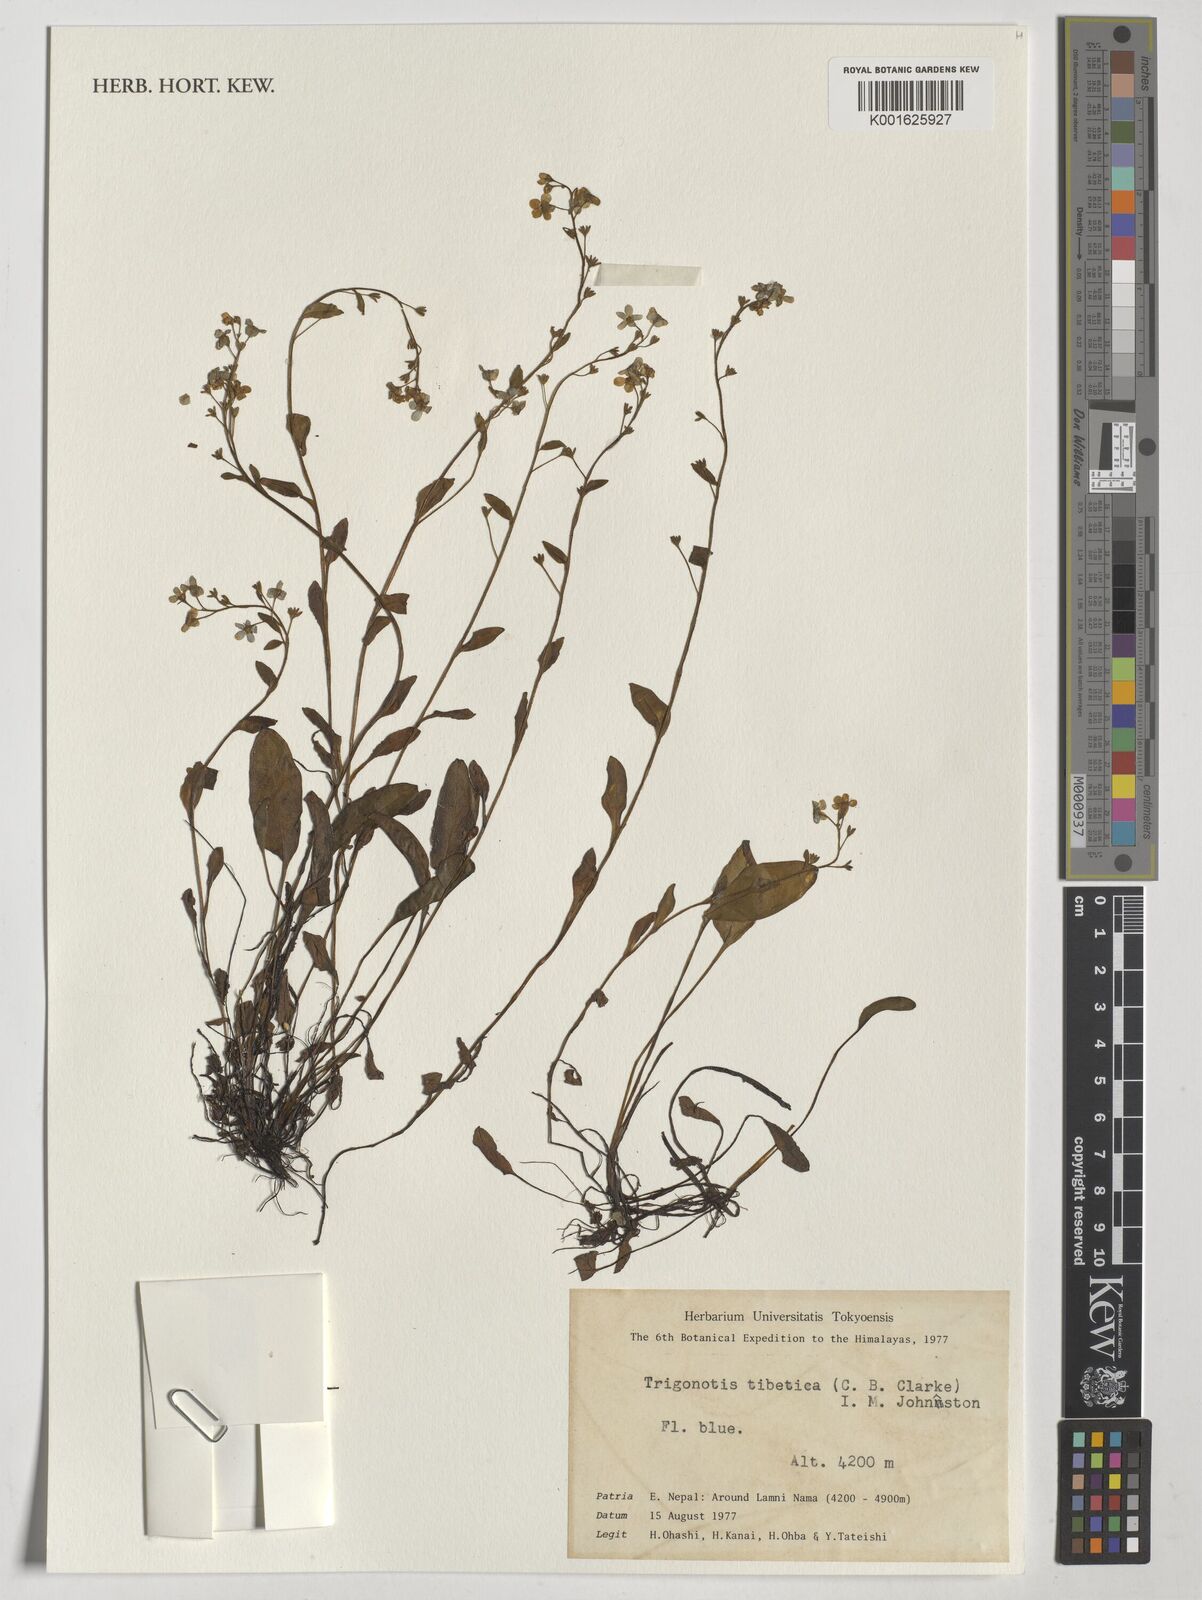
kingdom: Plantae
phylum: Tracheophyta
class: Magnoliopsida
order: Boraginales
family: Boraginaceae
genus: Trigonotis
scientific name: Trigonotis tibetica
